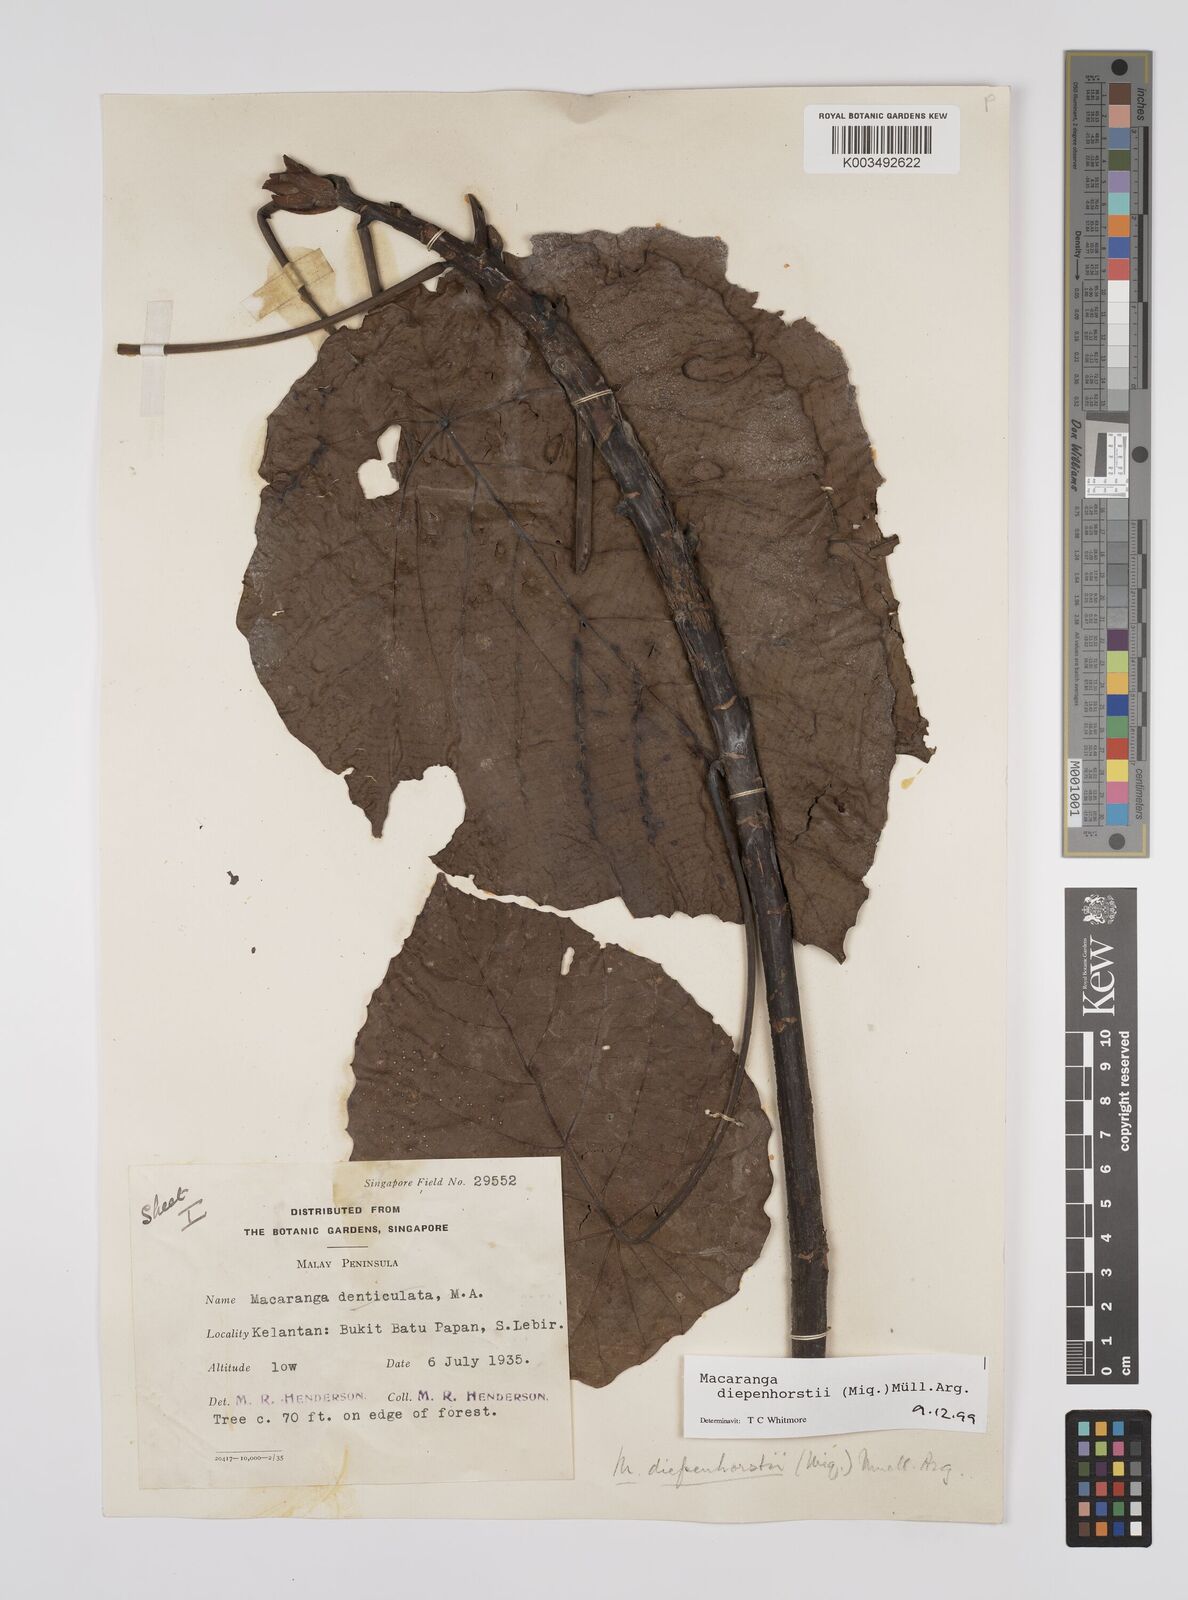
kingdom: Plantae
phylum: Tracheophyta
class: Magnoliopsida
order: Malpighiales
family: Euphorbiaceae
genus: Macaranga
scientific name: Macaranga diepenhorstii
